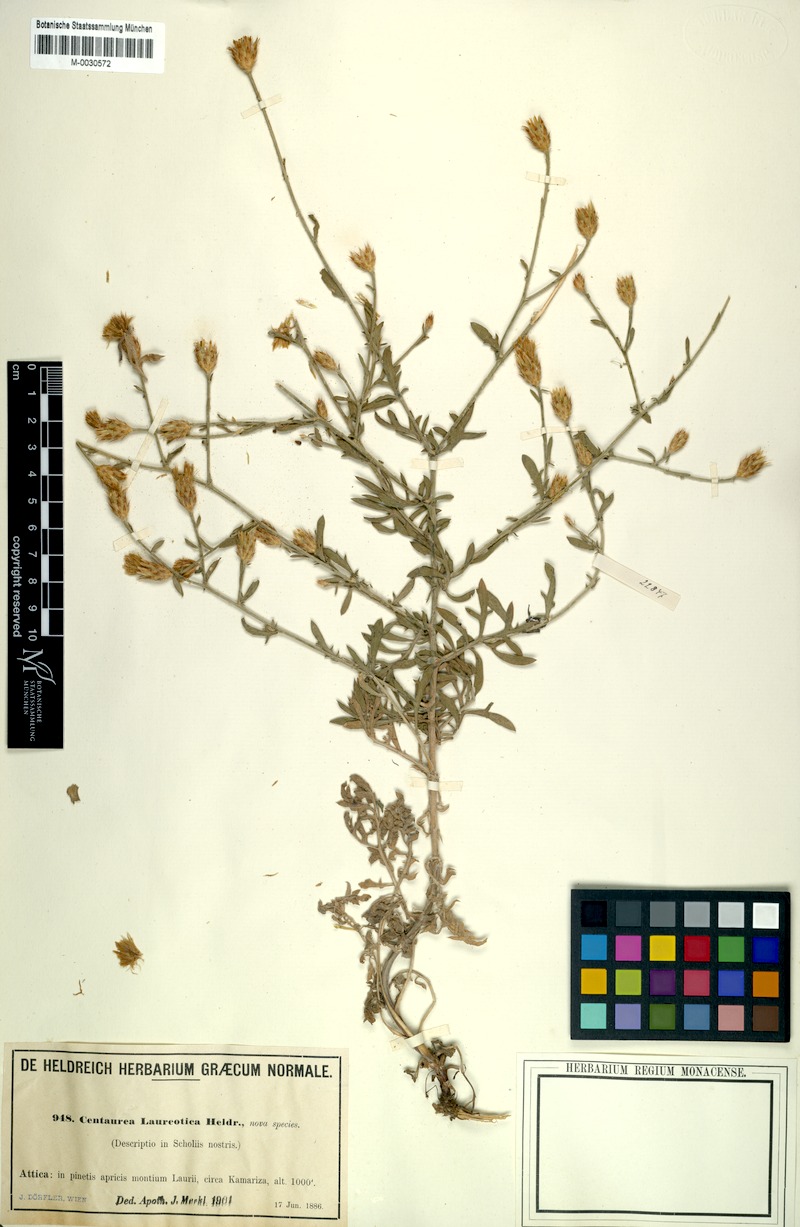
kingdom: Plantae
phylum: Tracheophyta
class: Magnoliopsida
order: Asterales
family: Asteraceae
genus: Centaurea
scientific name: Centaurea laureotica
